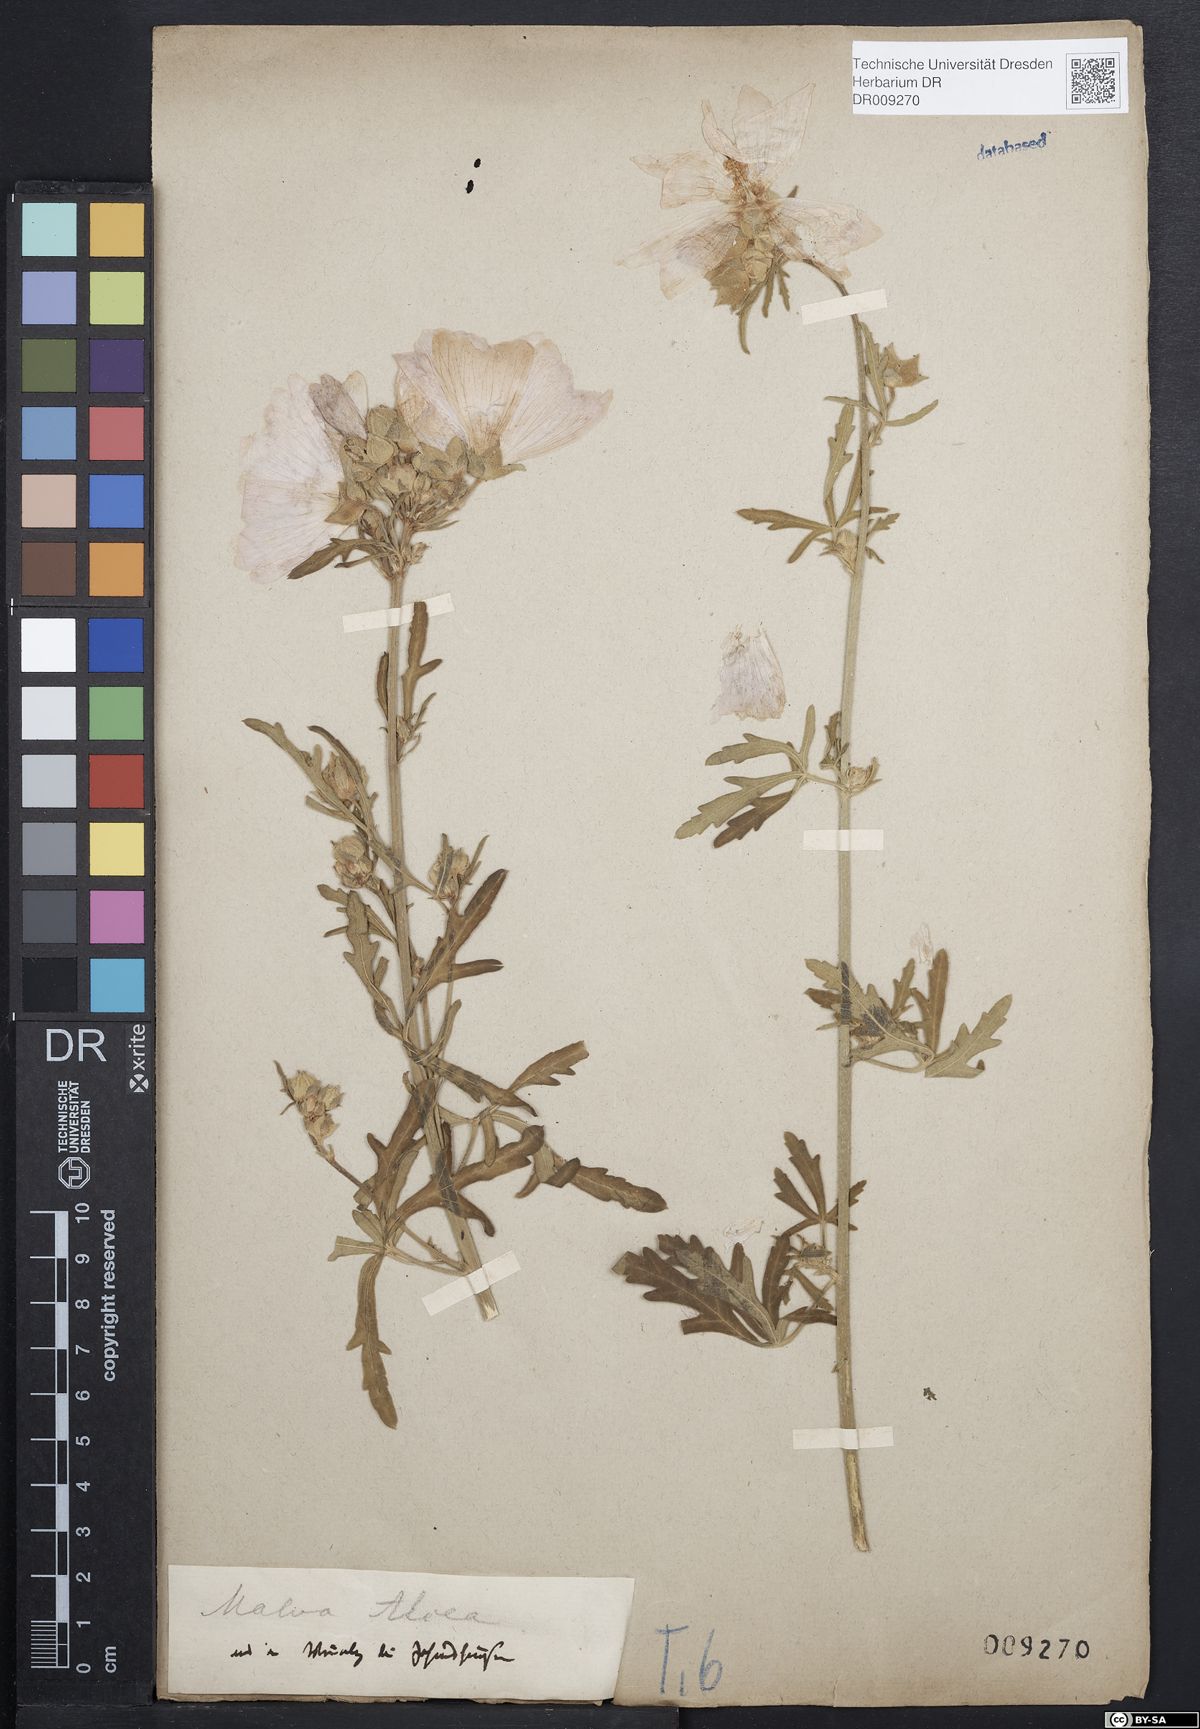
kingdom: Plantae
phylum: Tracheophyta
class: Magnoliopsida
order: Malvales
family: Malvaceae
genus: Malva
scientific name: Malva alcea
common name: Greater musk-mallow
